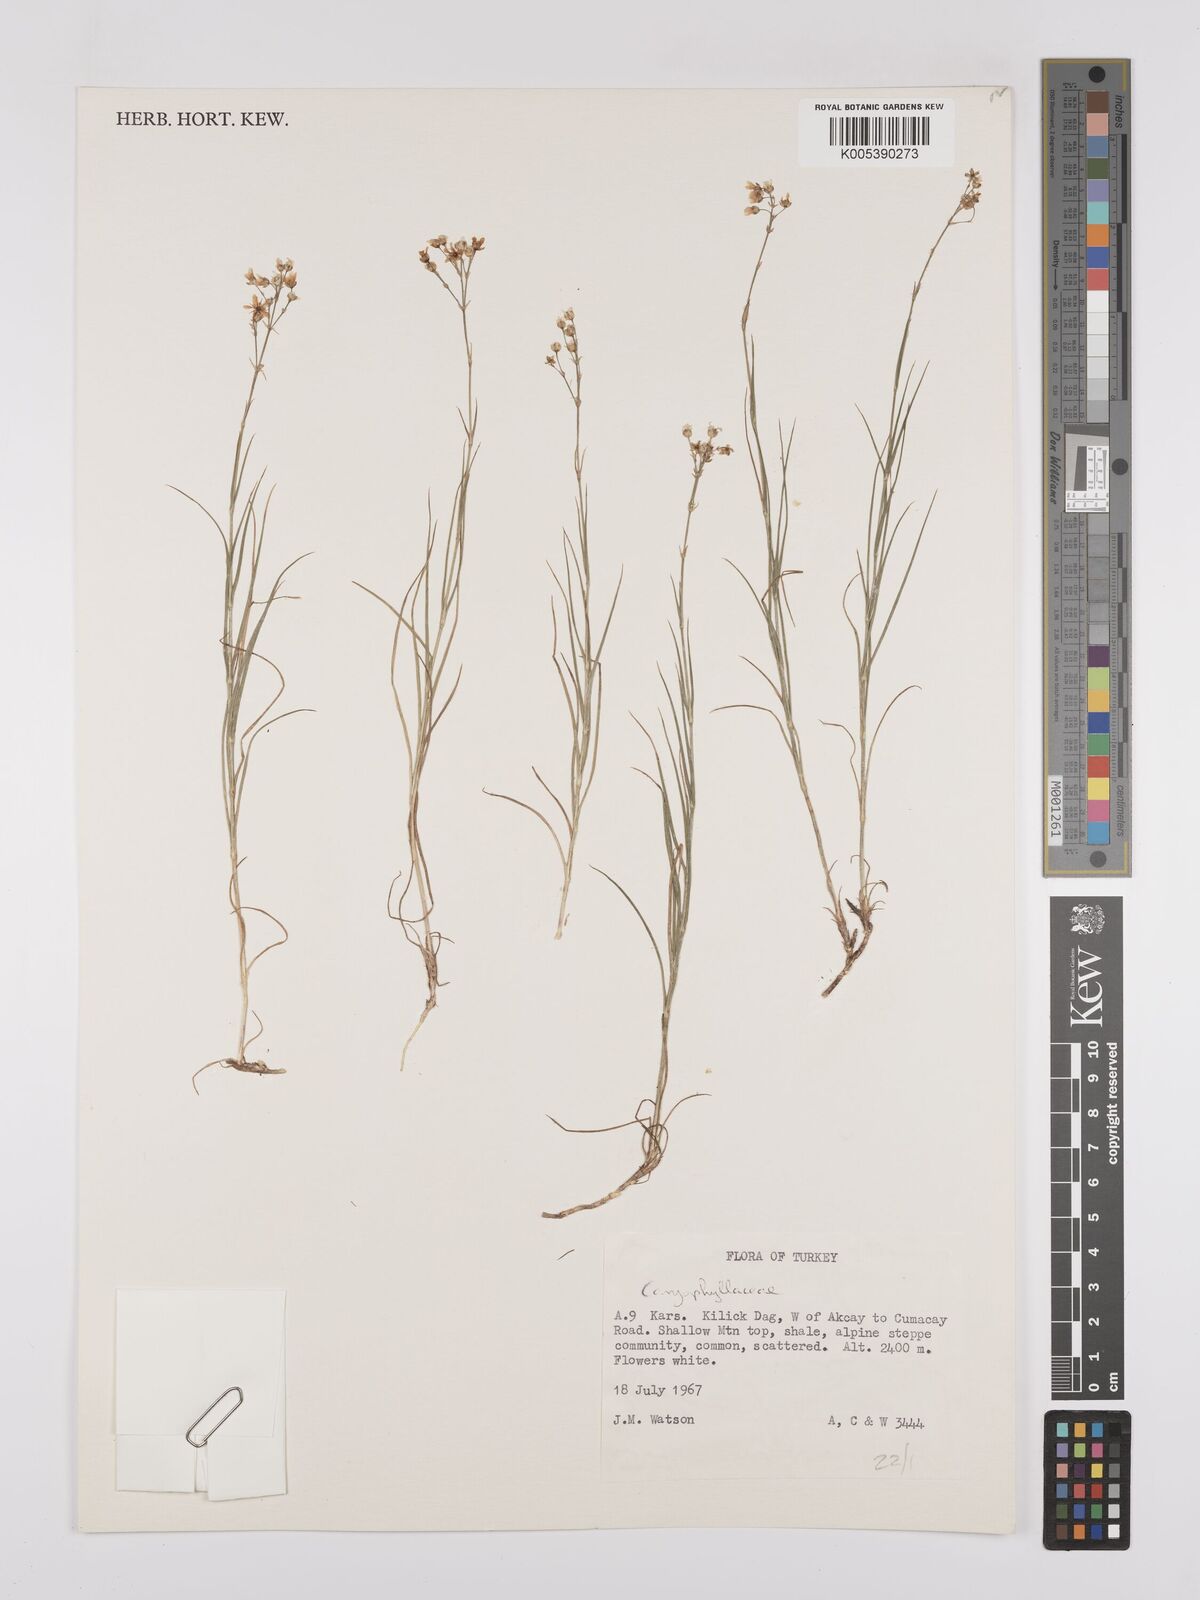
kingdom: Plantae
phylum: Tracheophyta
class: Magnoliopsida
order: Caryophyllales
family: Caryophyllaceae
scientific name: Caryophyllaceae
